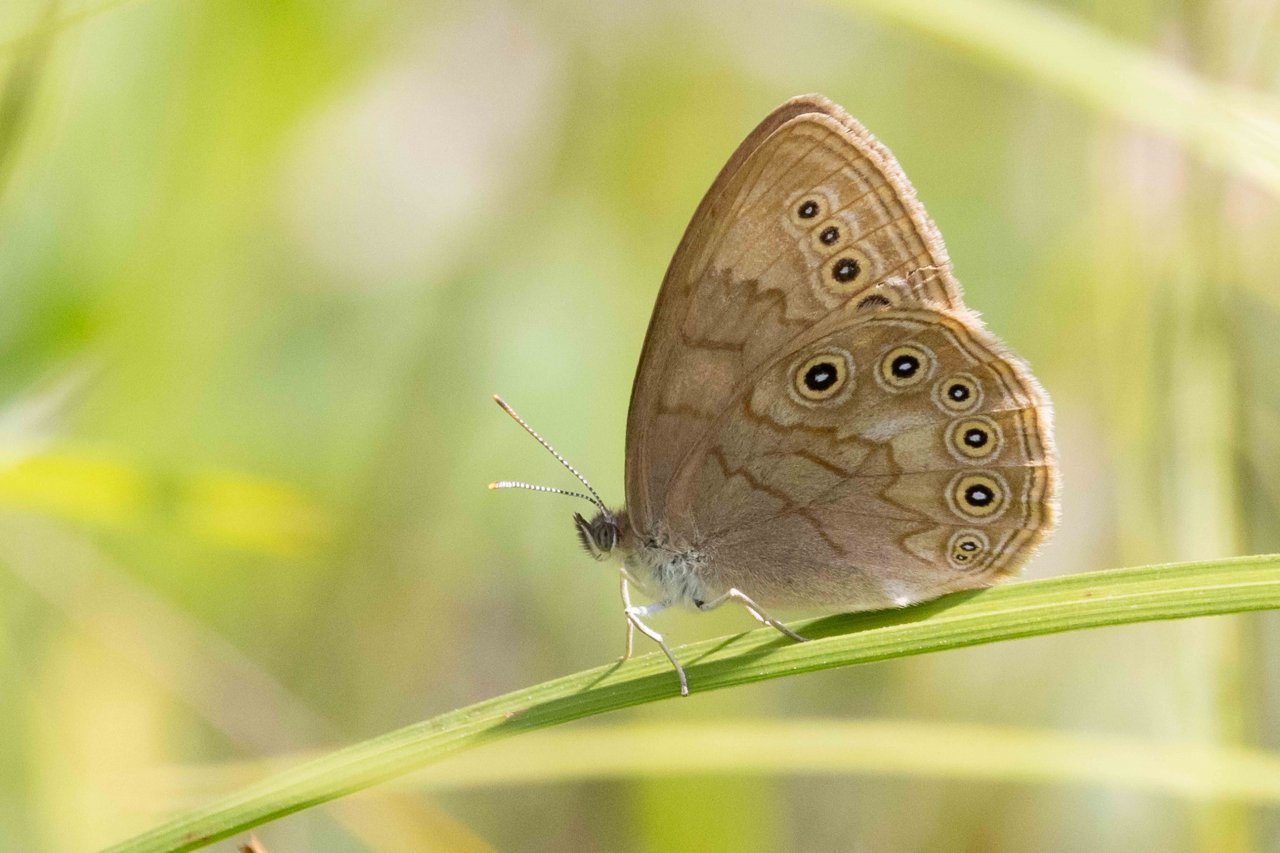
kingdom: Animalia
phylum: Arthropoda
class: Insecta
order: Lepidoptera
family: Nymphalidae
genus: Lethe
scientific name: Lethe eurydice
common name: Eyed Brown
